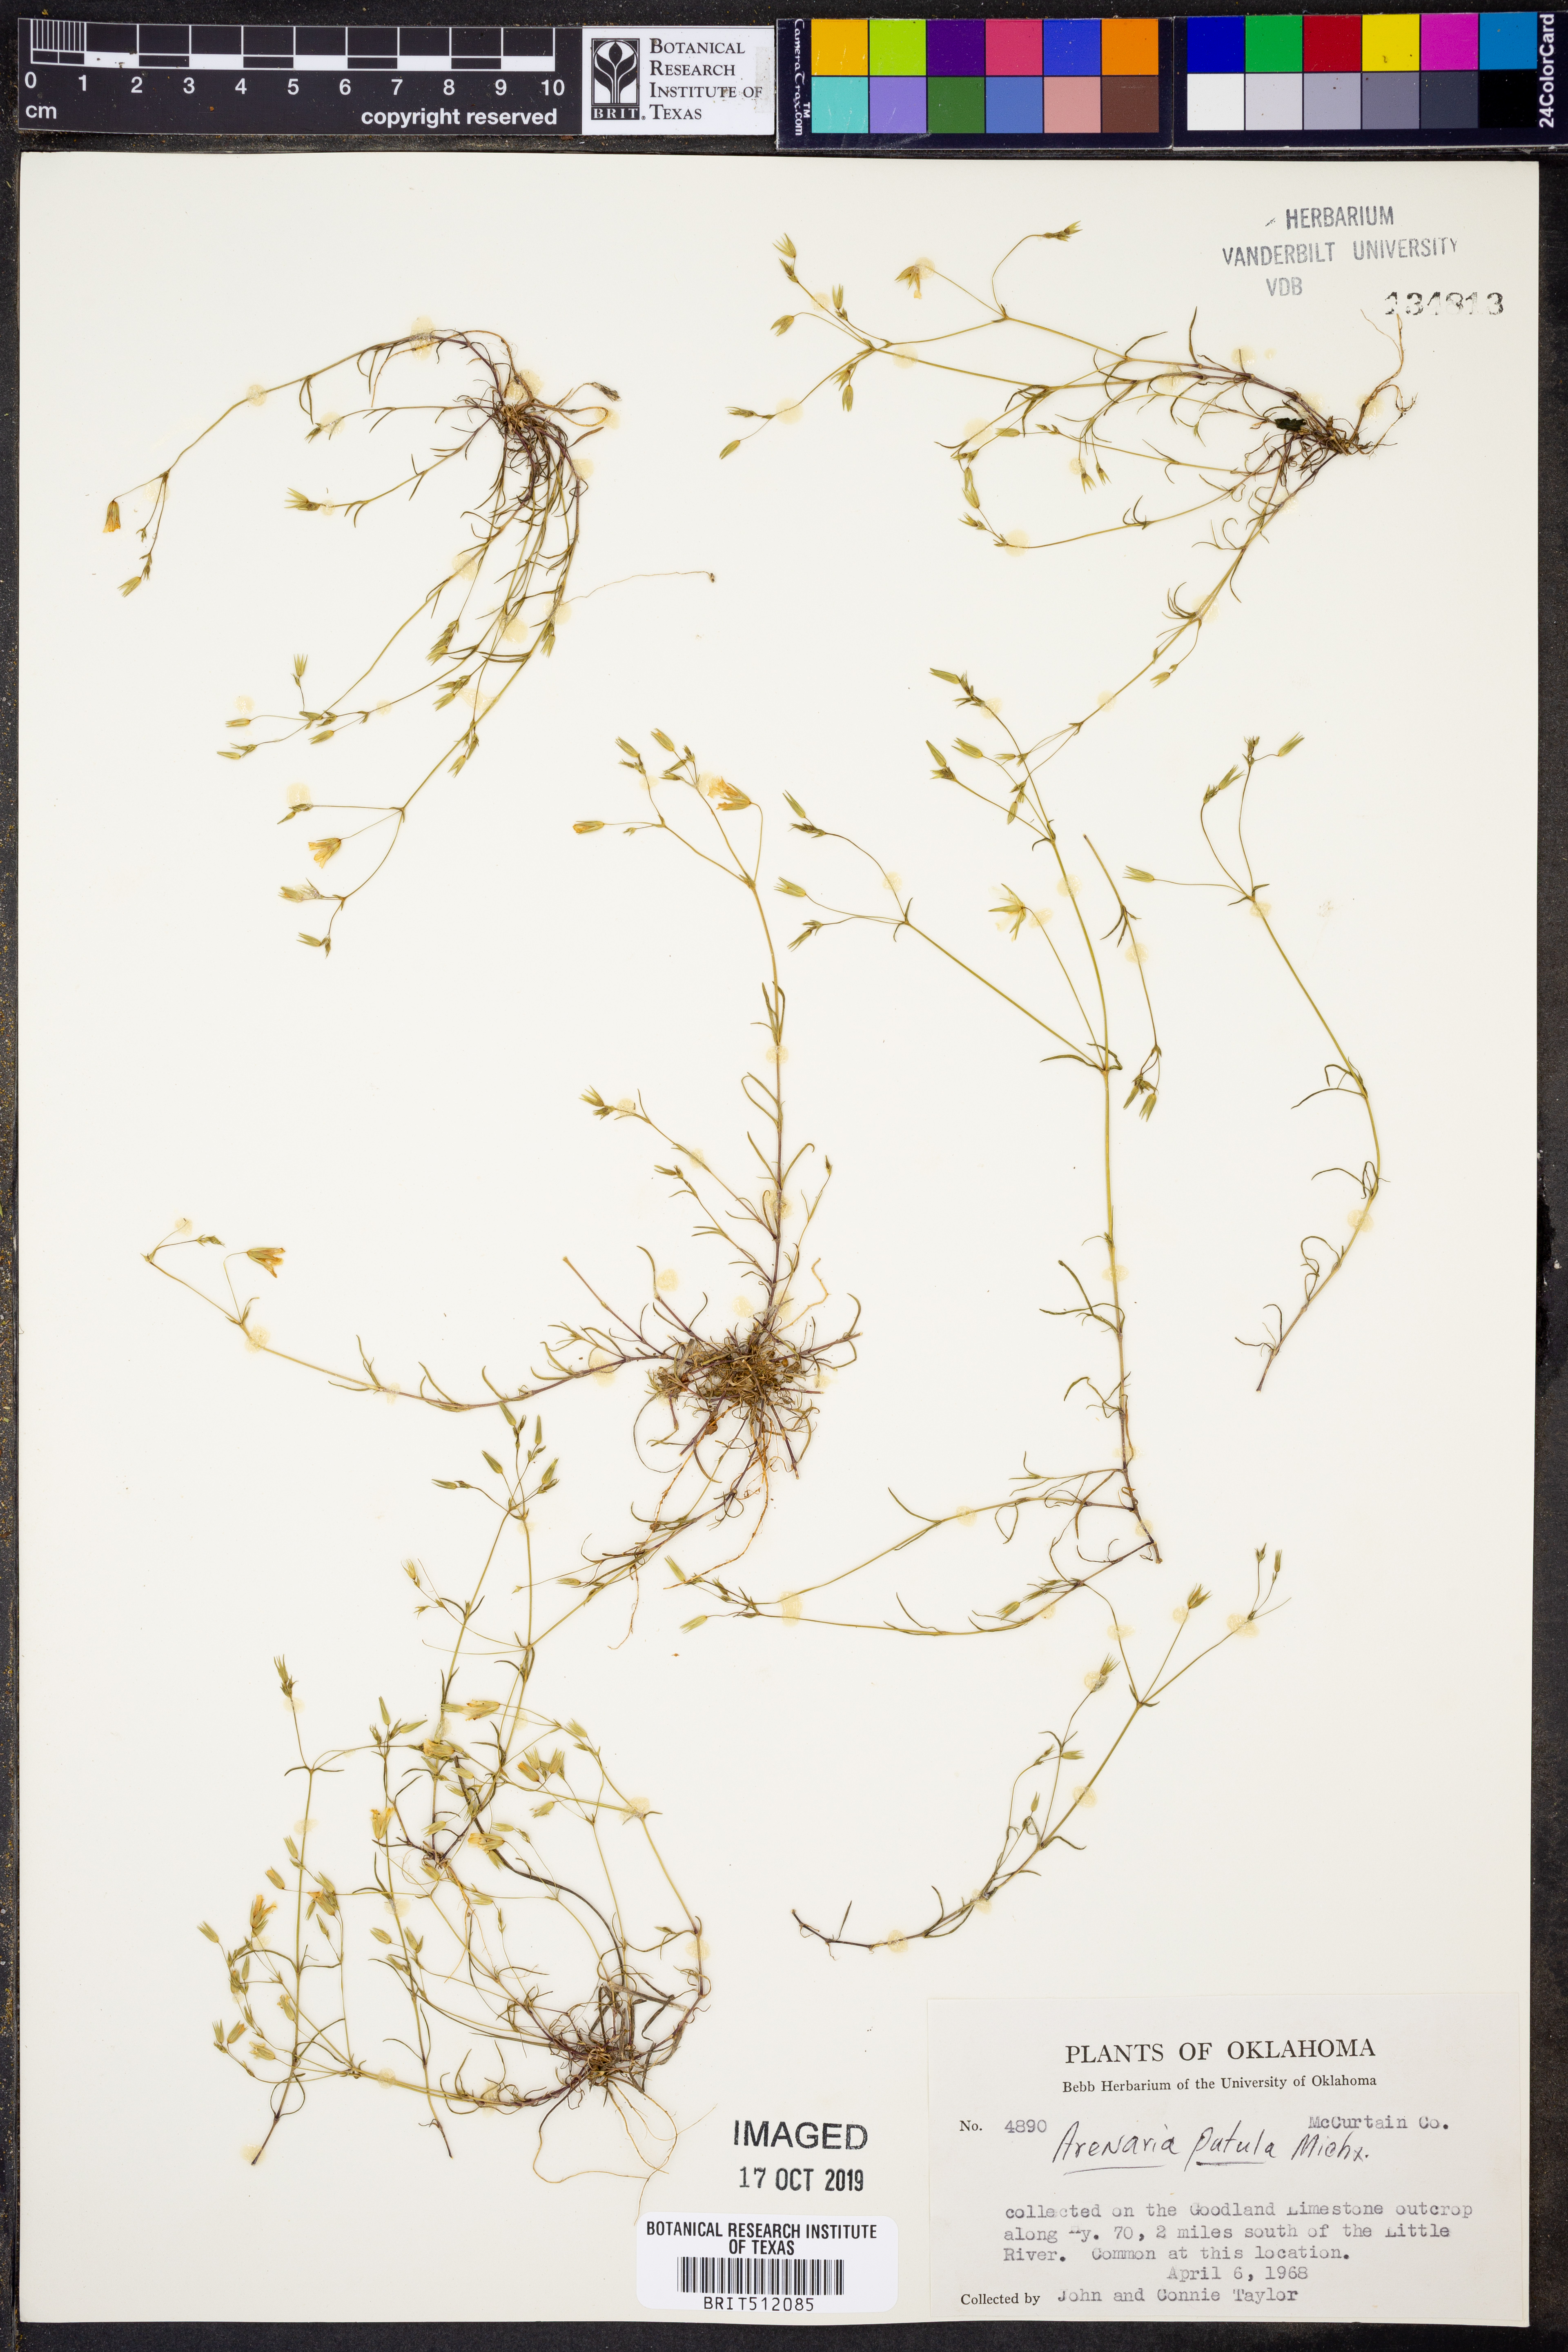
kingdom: Plantae
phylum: Tracheophyta
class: Magnoliopsida
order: Caryophyllales
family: Caryophyllaceae
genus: Mononeuria
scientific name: Mononeuria patula
